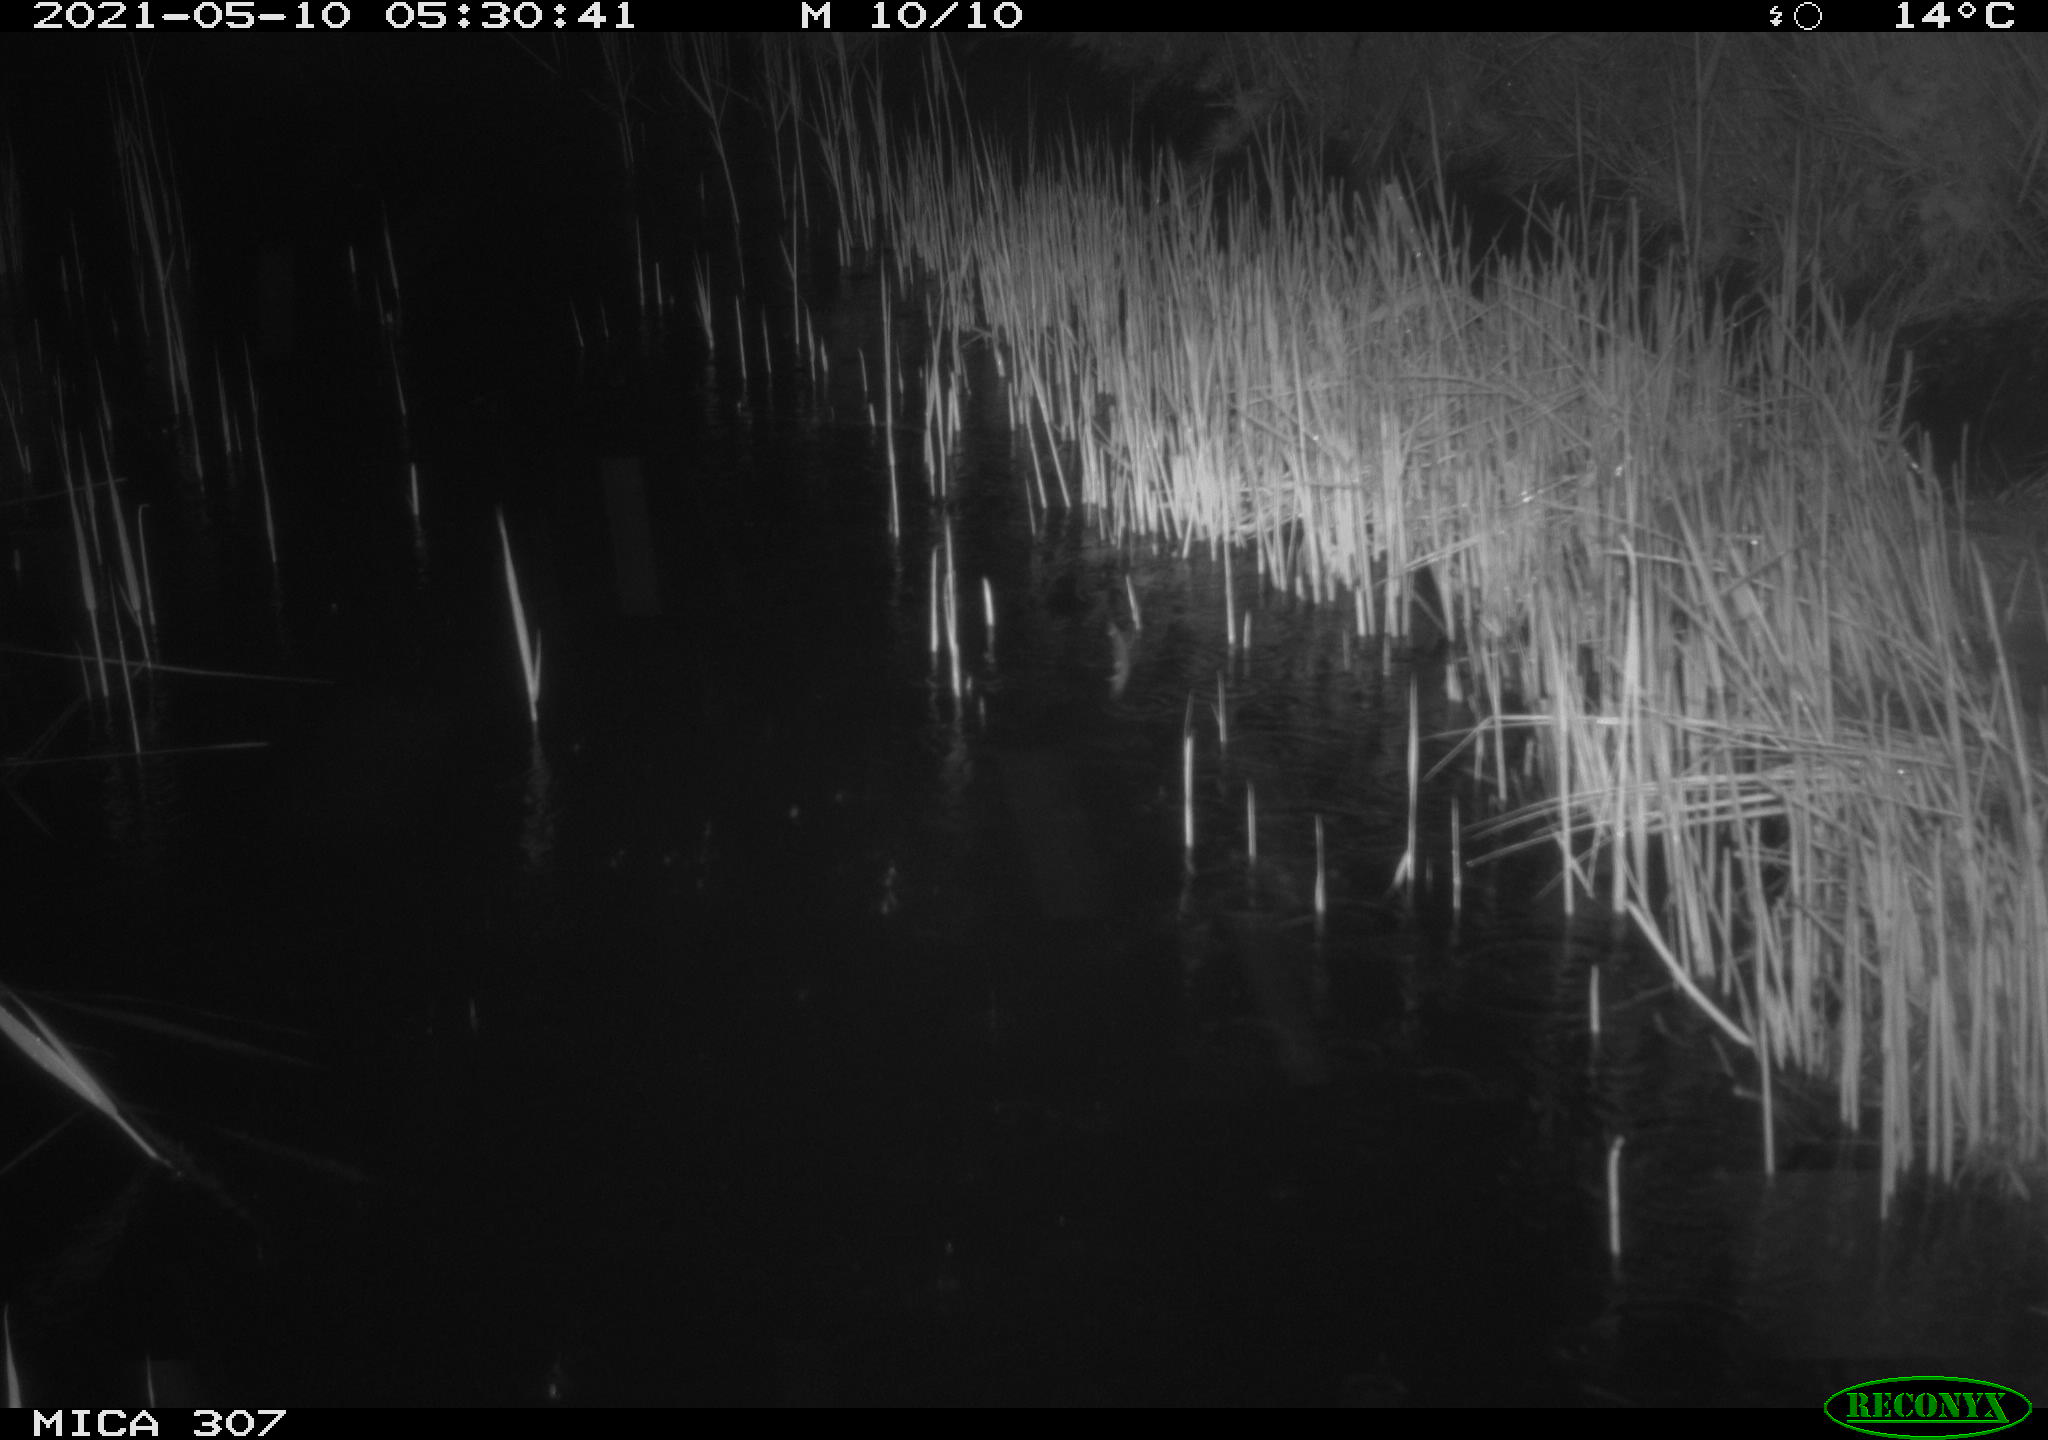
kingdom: Animalia
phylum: Chordata
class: Mammalia
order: Rodentia
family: Muridae
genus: Rattus
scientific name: Rattus norvegicus
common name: Brown rat
